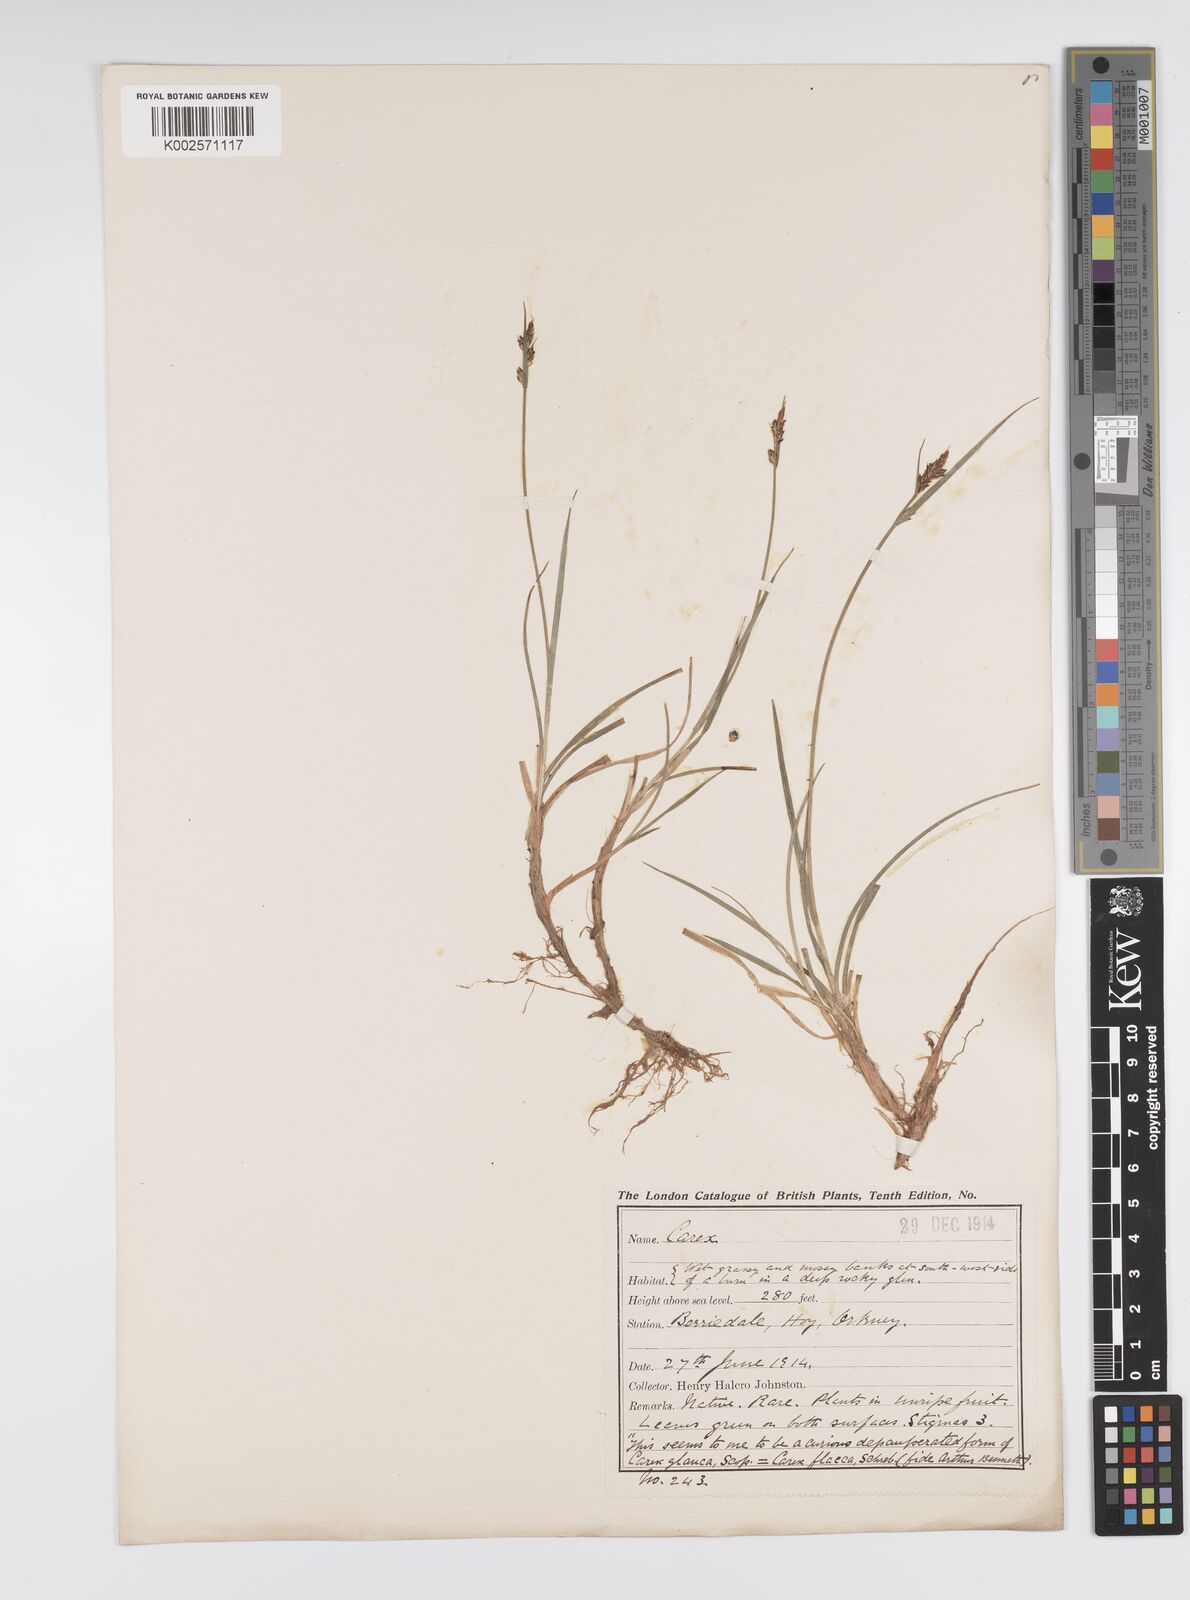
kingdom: Plantae
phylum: Tracheophyta
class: Liliopsida
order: Poales
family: Cyperaceae
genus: Carex
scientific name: Carex pilulifera
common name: Pill sedge
